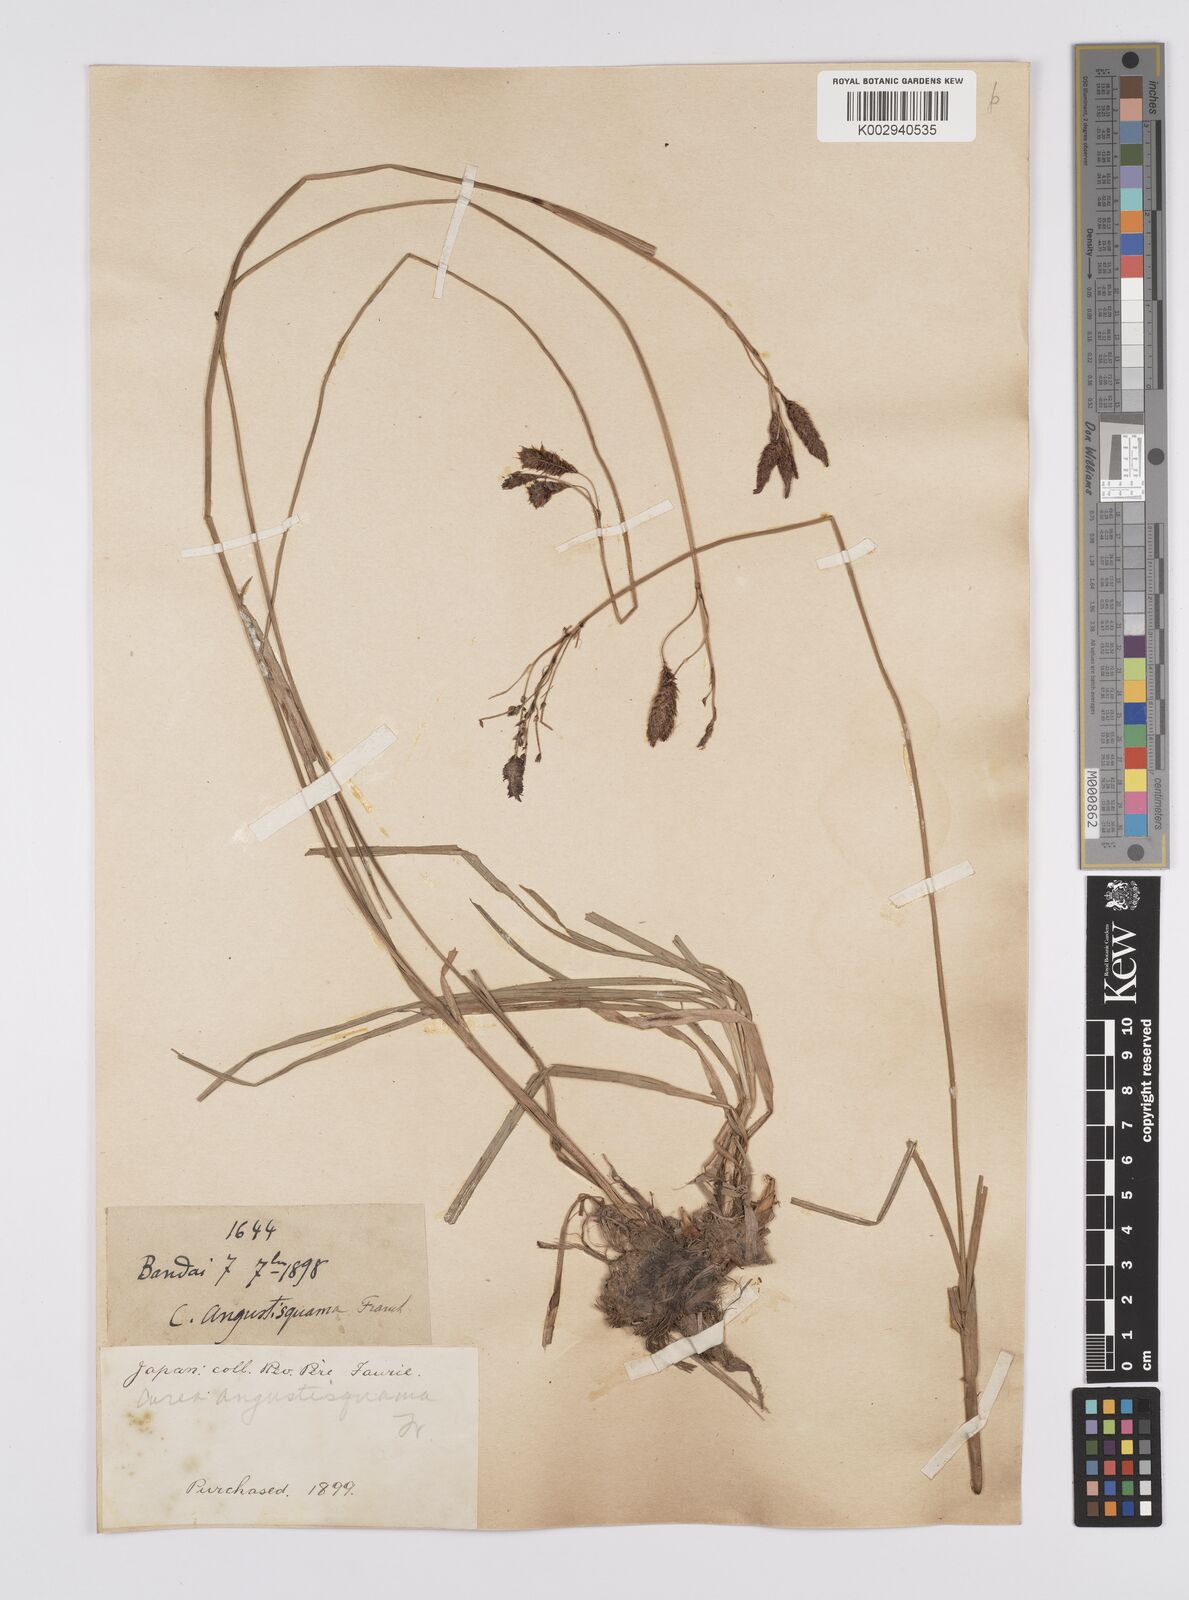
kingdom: Plantae
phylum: Tracheophyta
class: Liliopsida
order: Poales
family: Cyperaceae
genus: Carex
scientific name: Carex angustisquama
